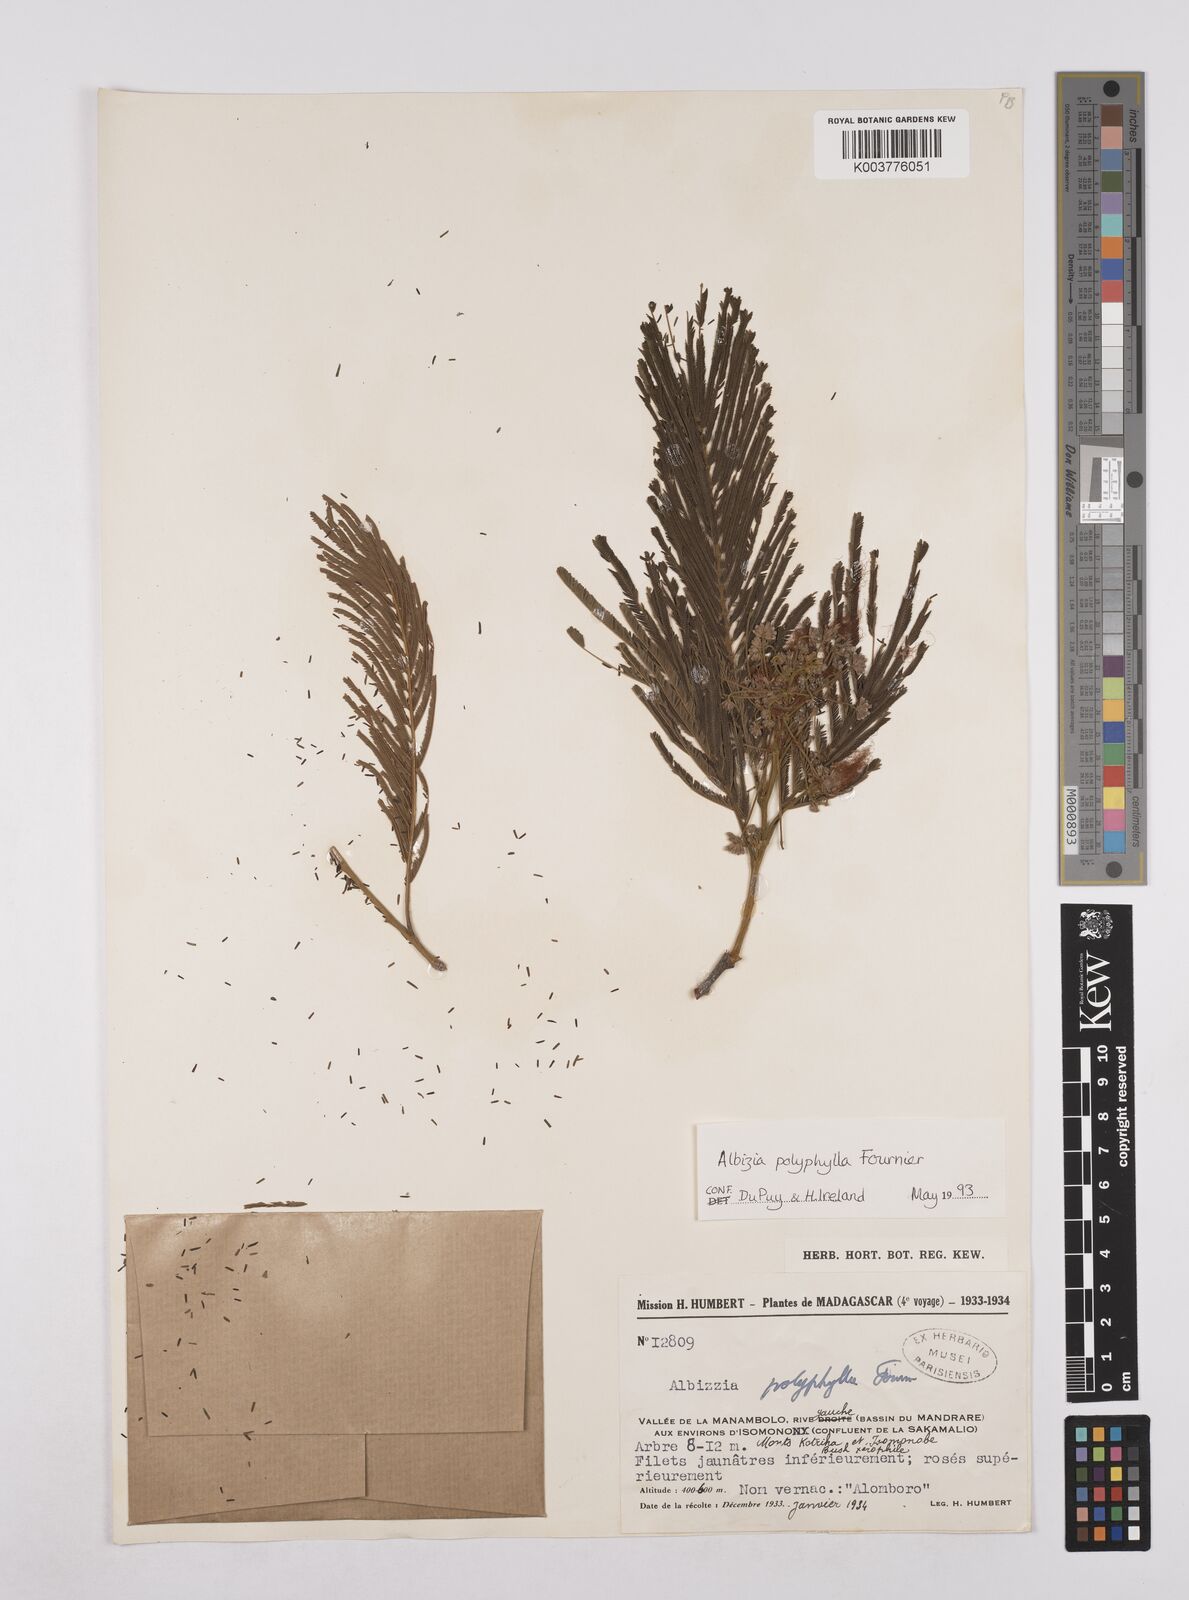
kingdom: Plantae
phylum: Tracheophyta
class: Magnoliopsida
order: Fabales
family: Fabaceae
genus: Albizia
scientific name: Albizia polyphylla
